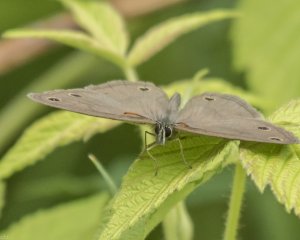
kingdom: Animalia
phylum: Arthropoda
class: Insecta
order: Lepidoptera
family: Nymphalidae
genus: Euptychia
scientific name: Euptychia cymela
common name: Little Wood Satyr
